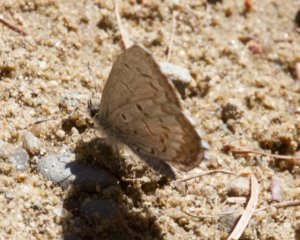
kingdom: Animalia
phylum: Arthropoda
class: Insecta
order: Lepidoptera
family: Lycaenidae
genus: Celastrina
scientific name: Celastrina
